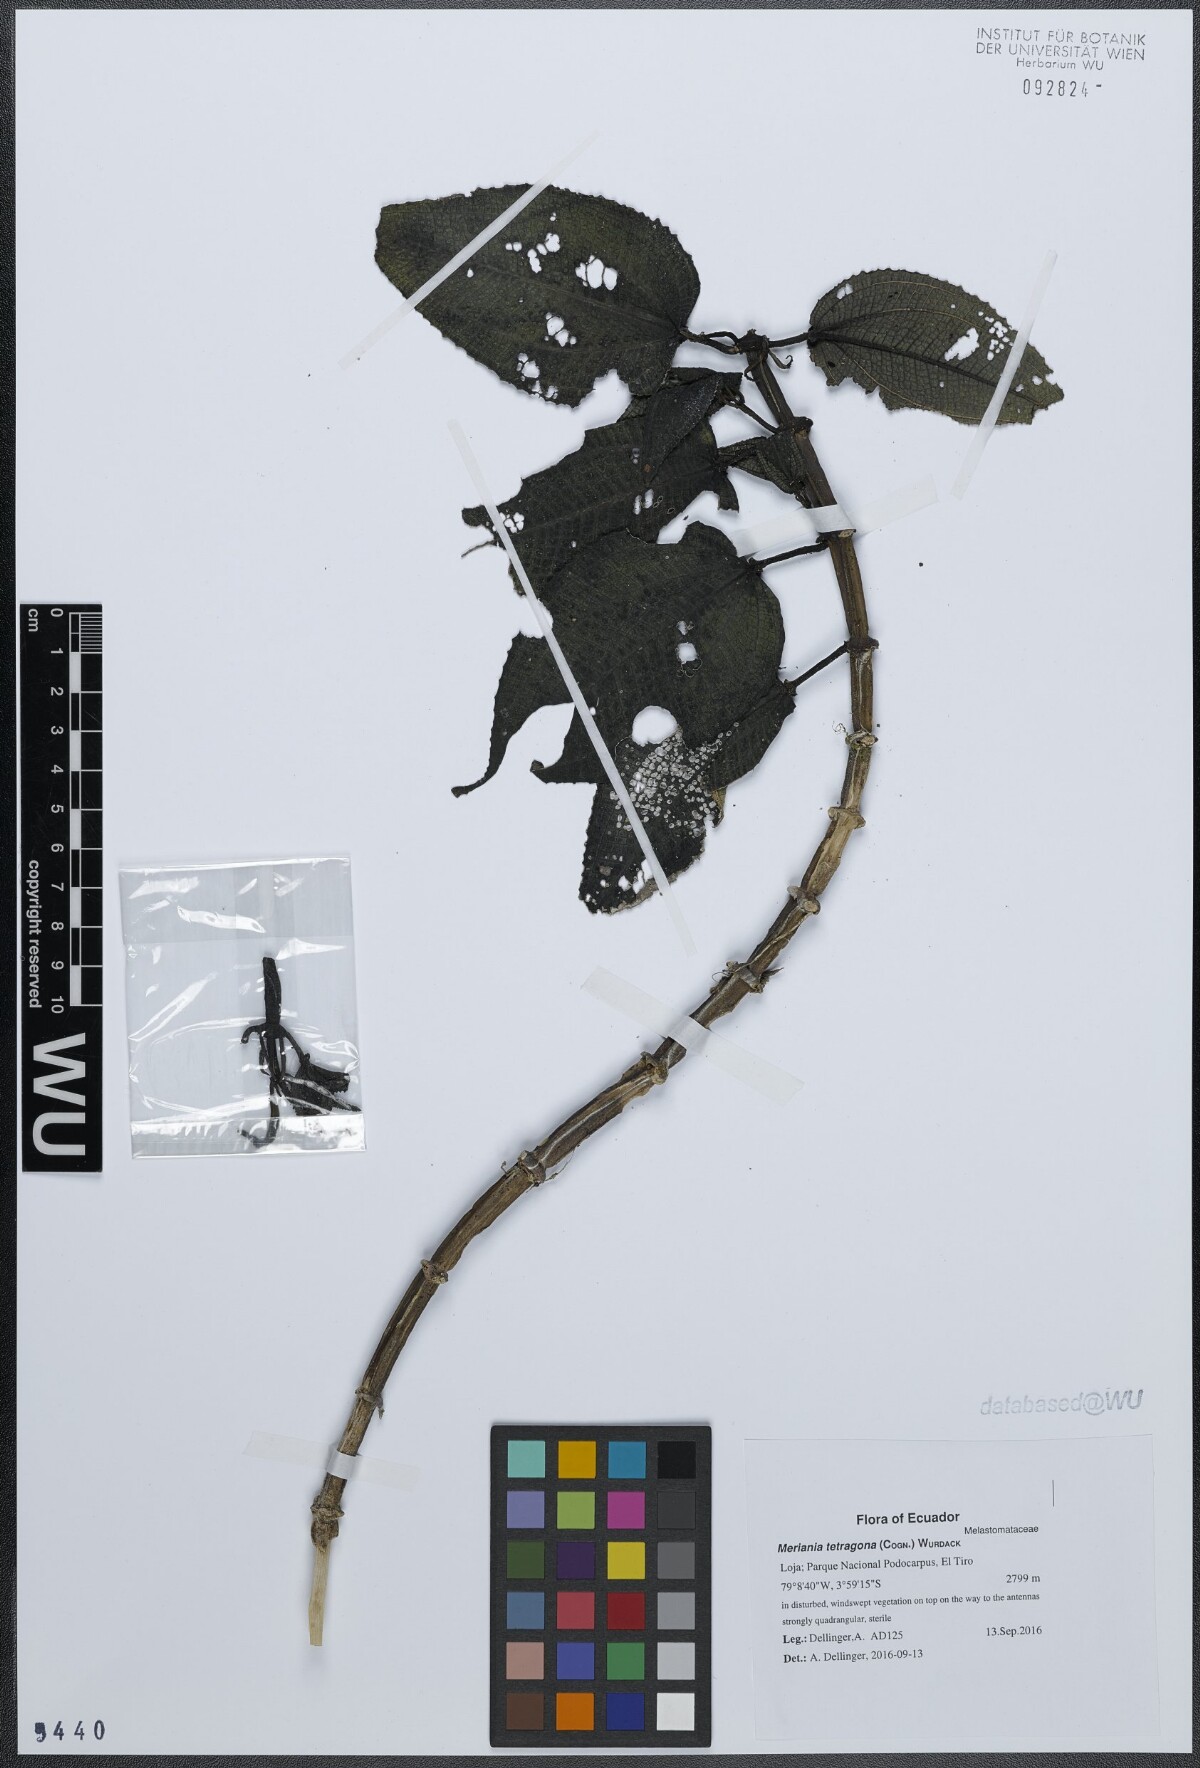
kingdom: Plantae
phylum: Tracheophyta
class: Magnoliopsida
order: Myrtales
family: Melastomataceae
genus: Meriania
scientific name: Meriania tetragona
